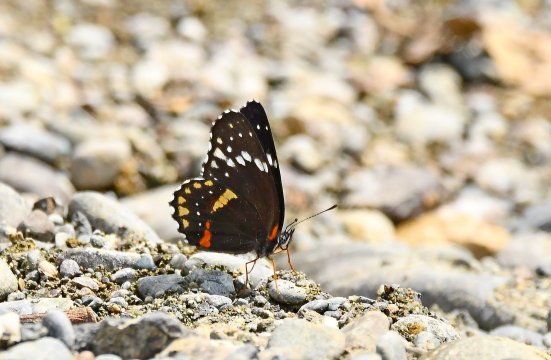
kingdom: Animalia
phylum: Arthropoda
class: Insecta
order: Lepidoptera
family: Nymphalidae
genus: Chlosyne
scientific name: Chlosyne
